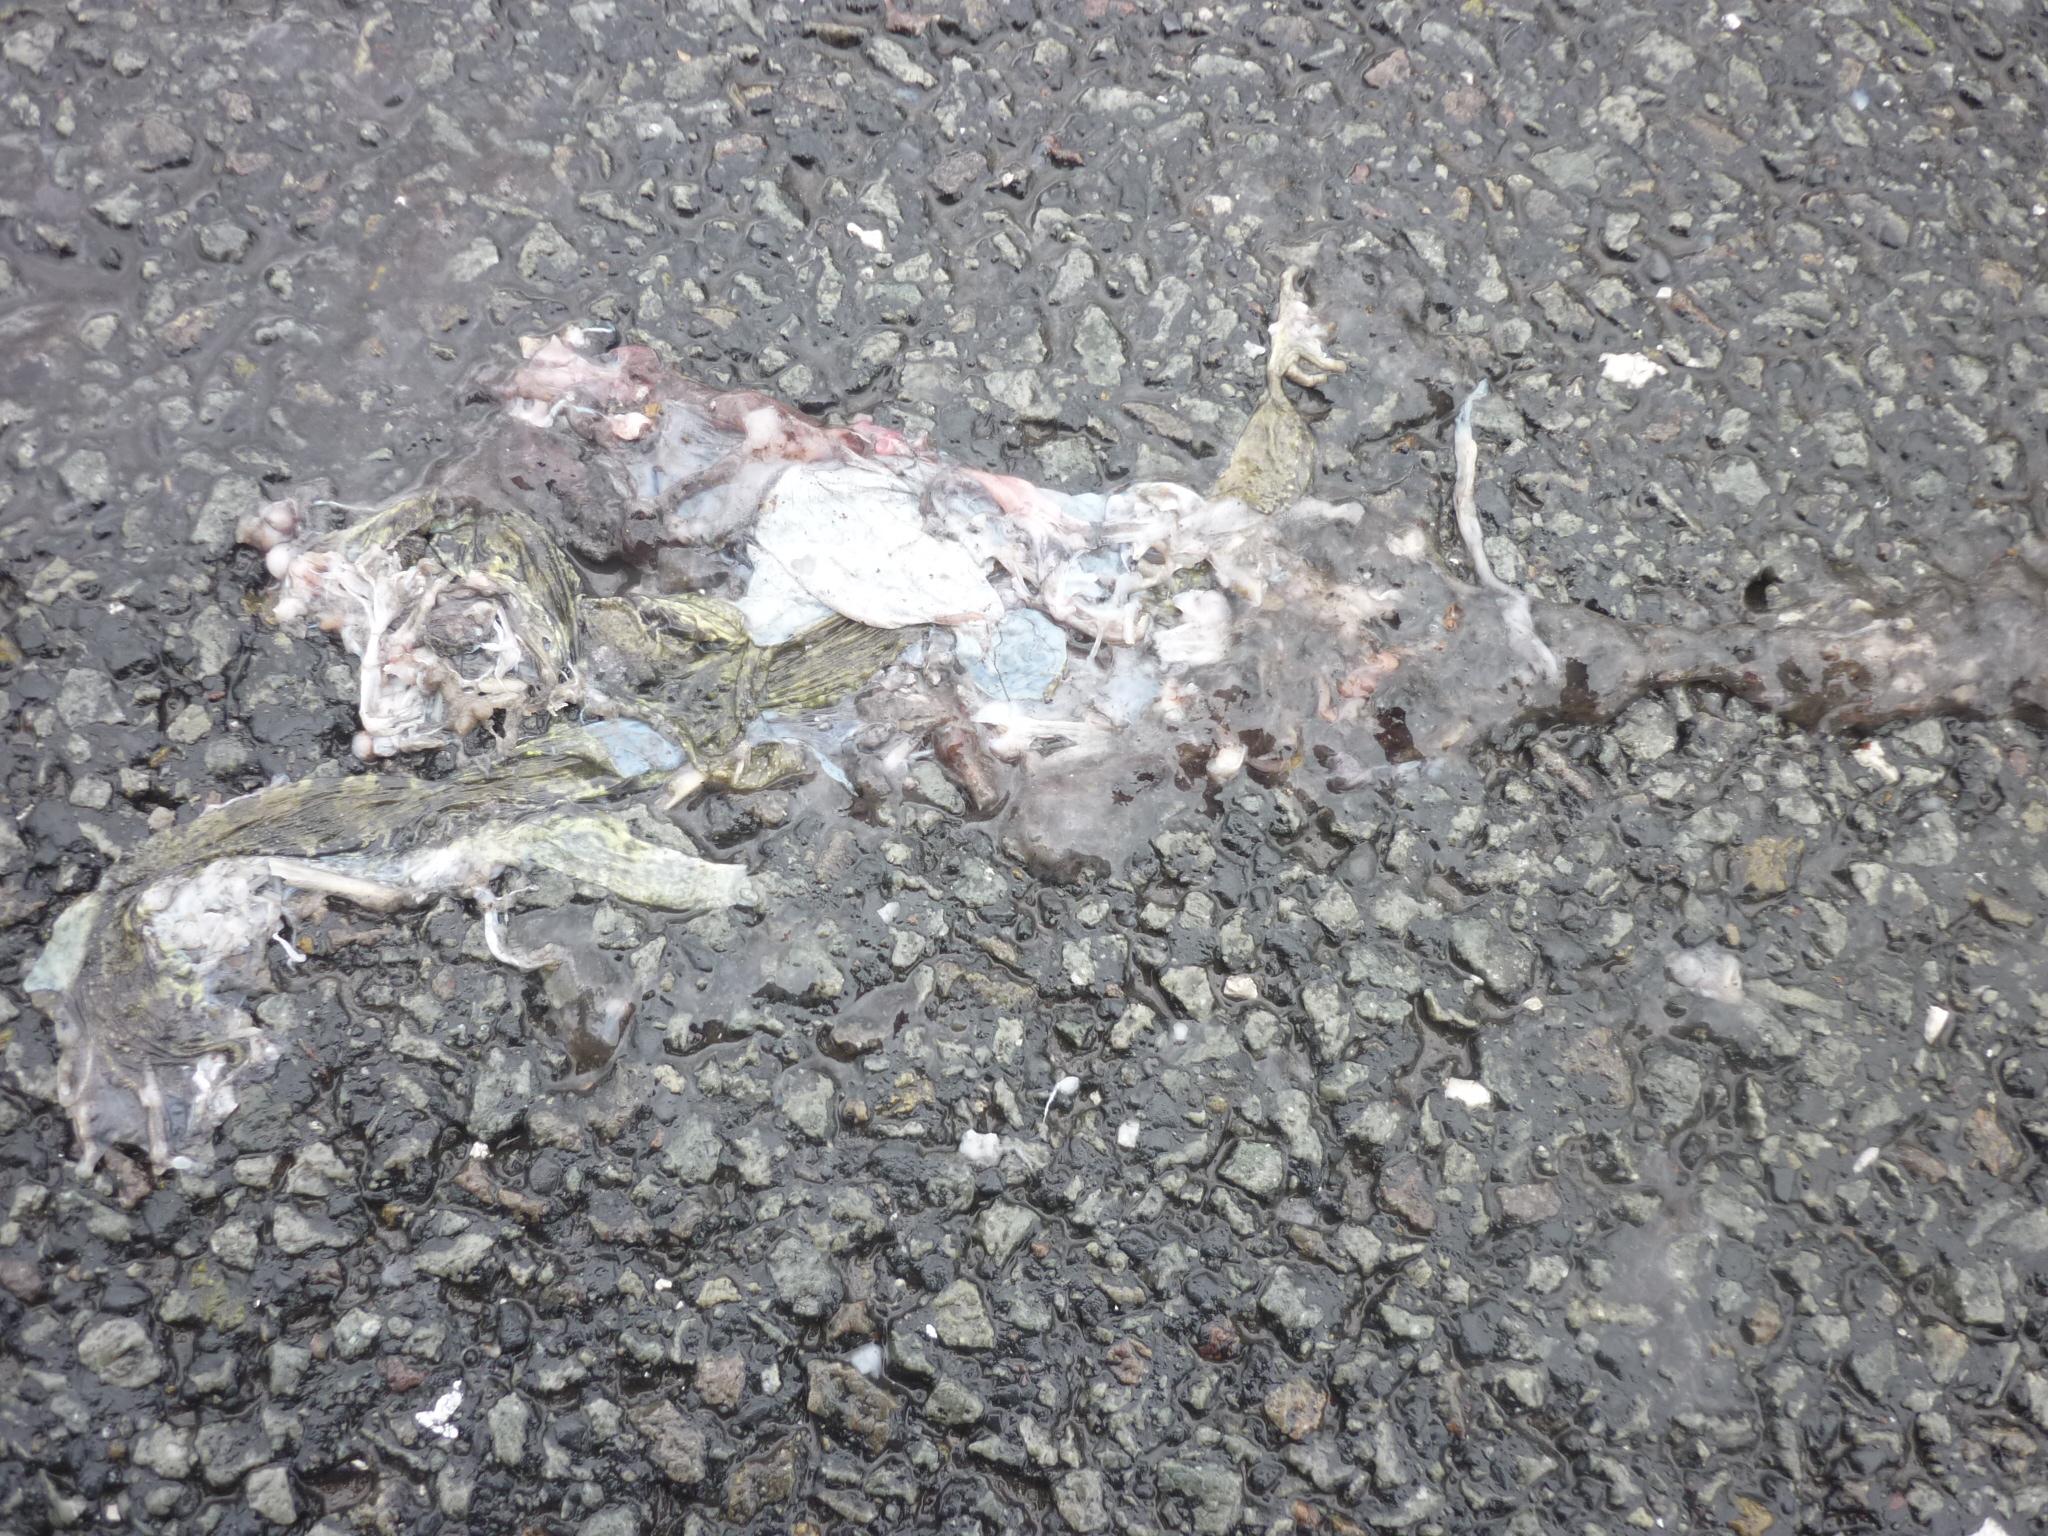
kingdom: Animalia
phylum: Chordata
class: Amphibia
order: Anura
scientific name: Anura
